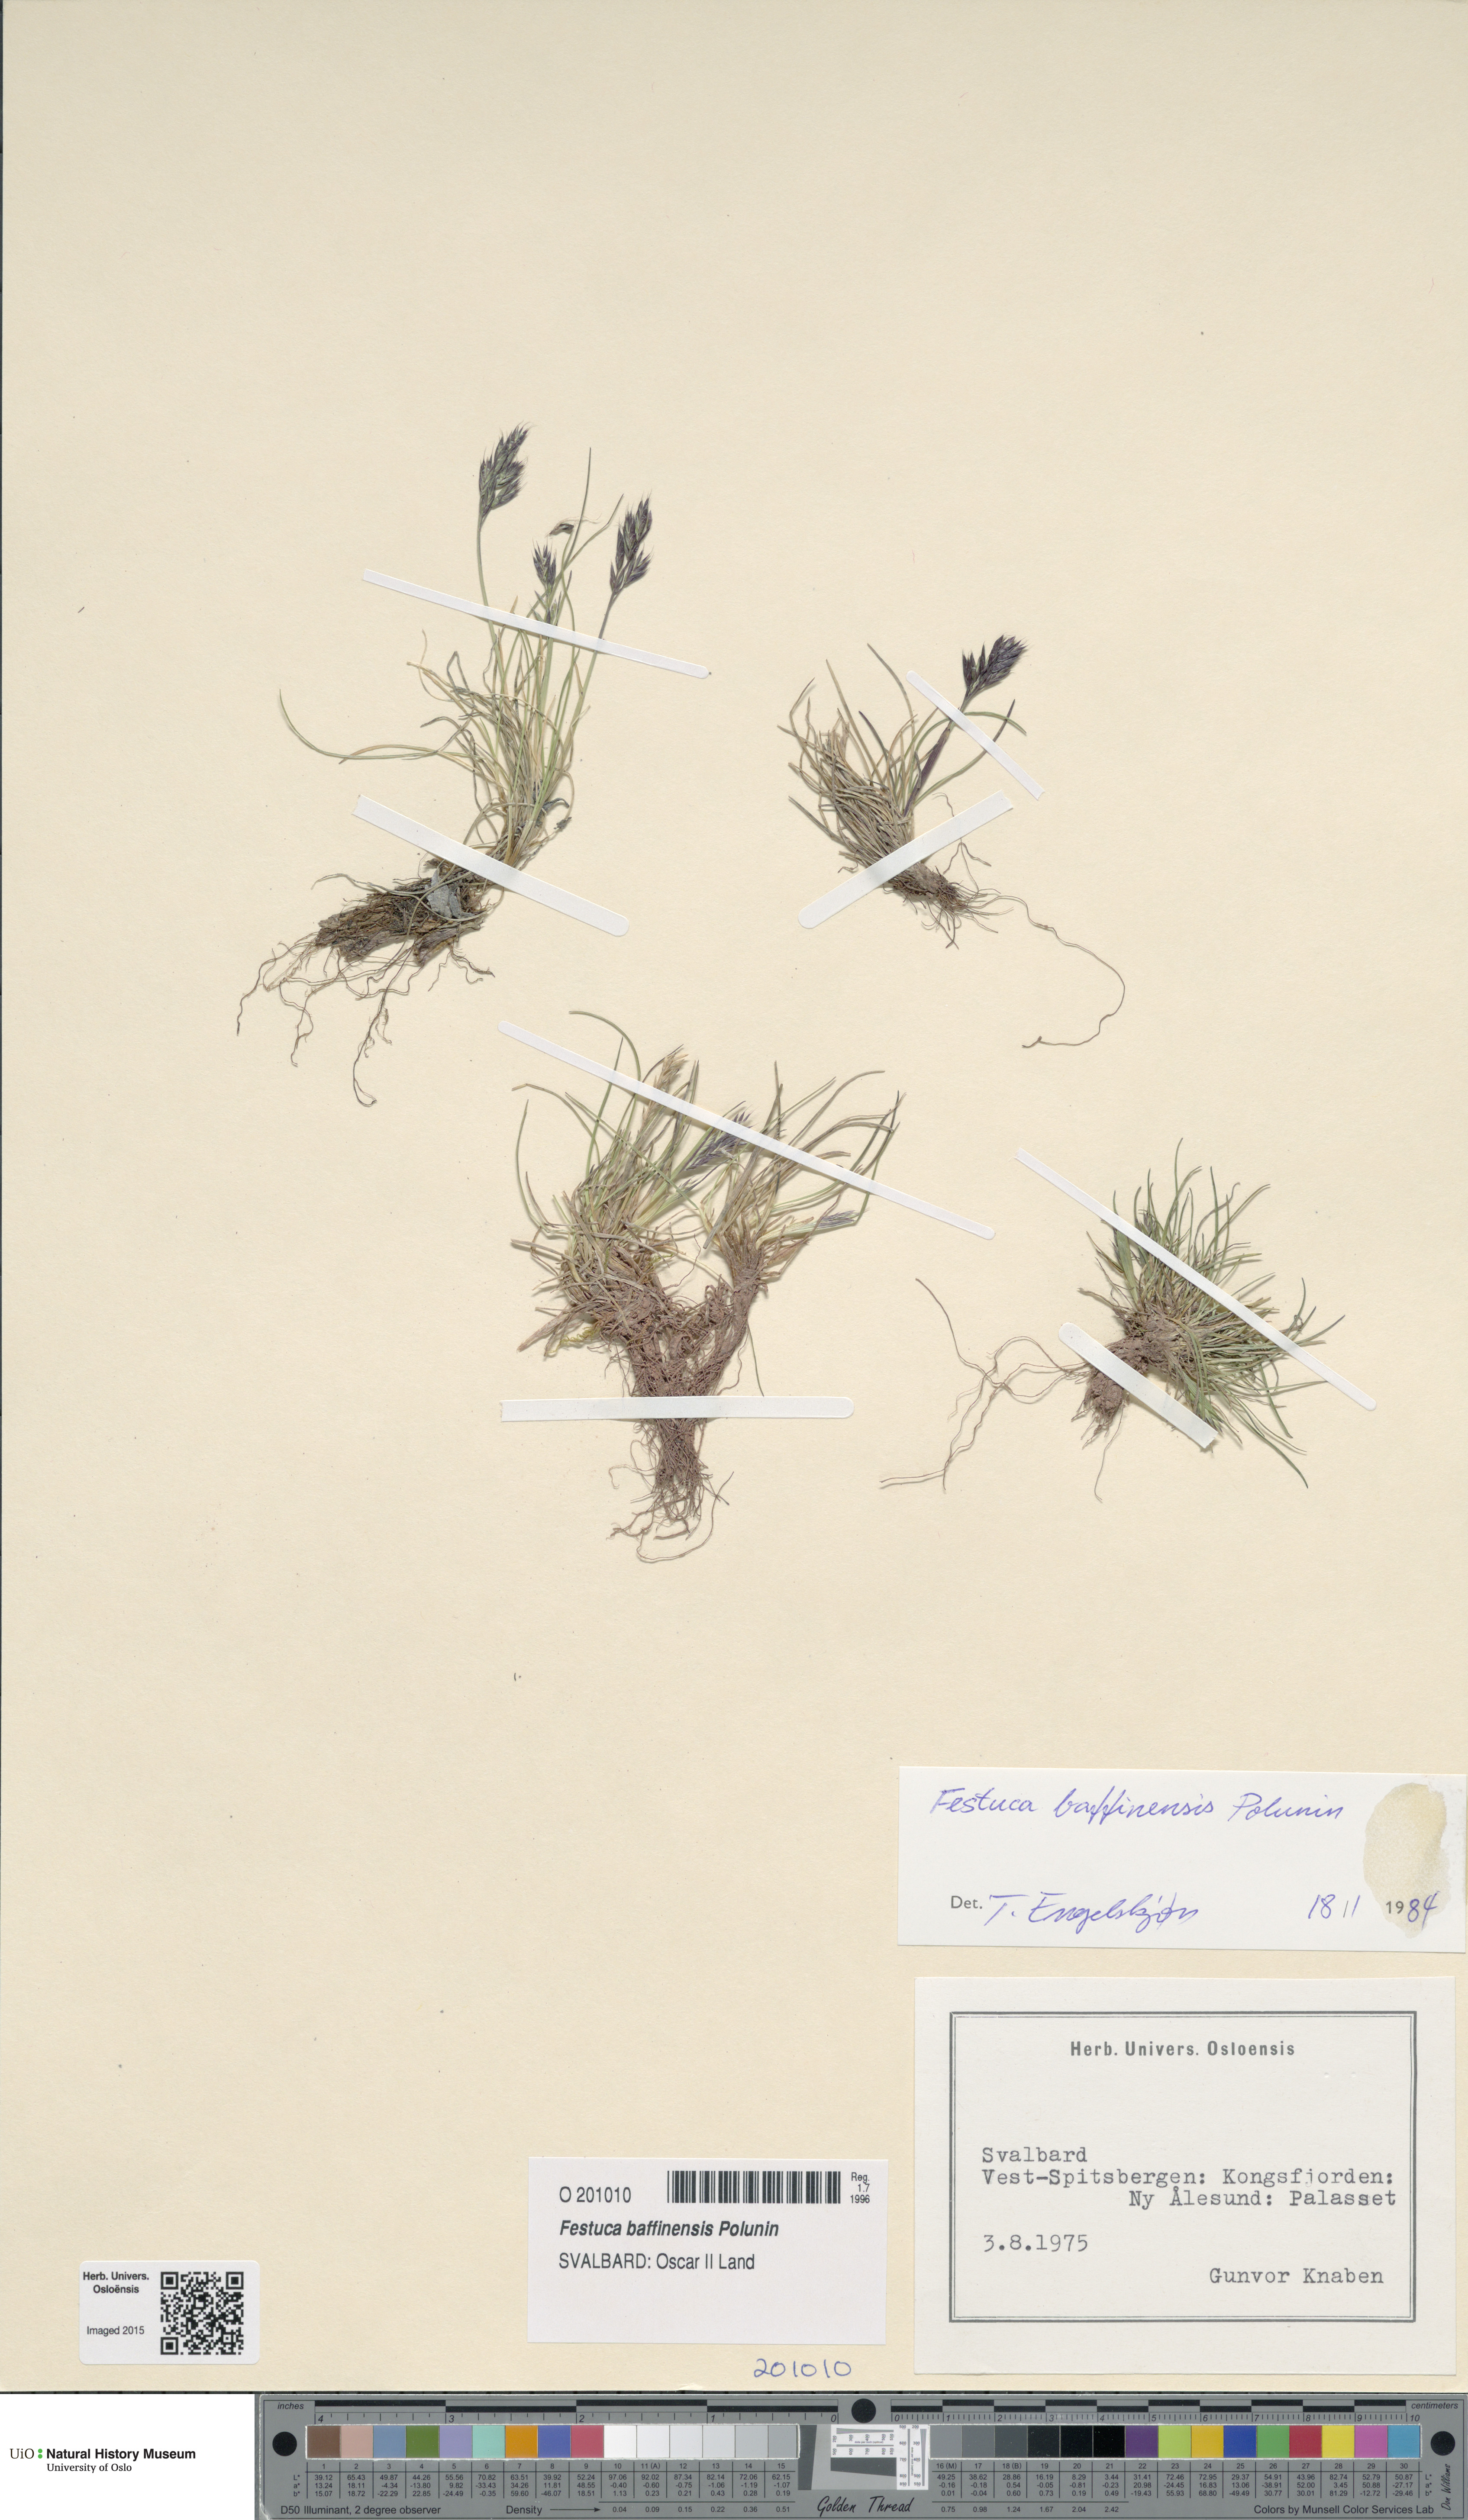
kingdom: Plantae
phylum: Tracheophyta
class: Liliopsida
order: Poales
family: Poaceae
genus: Festuca
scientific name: Festuca baffinensis
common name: Baffin island fescue
